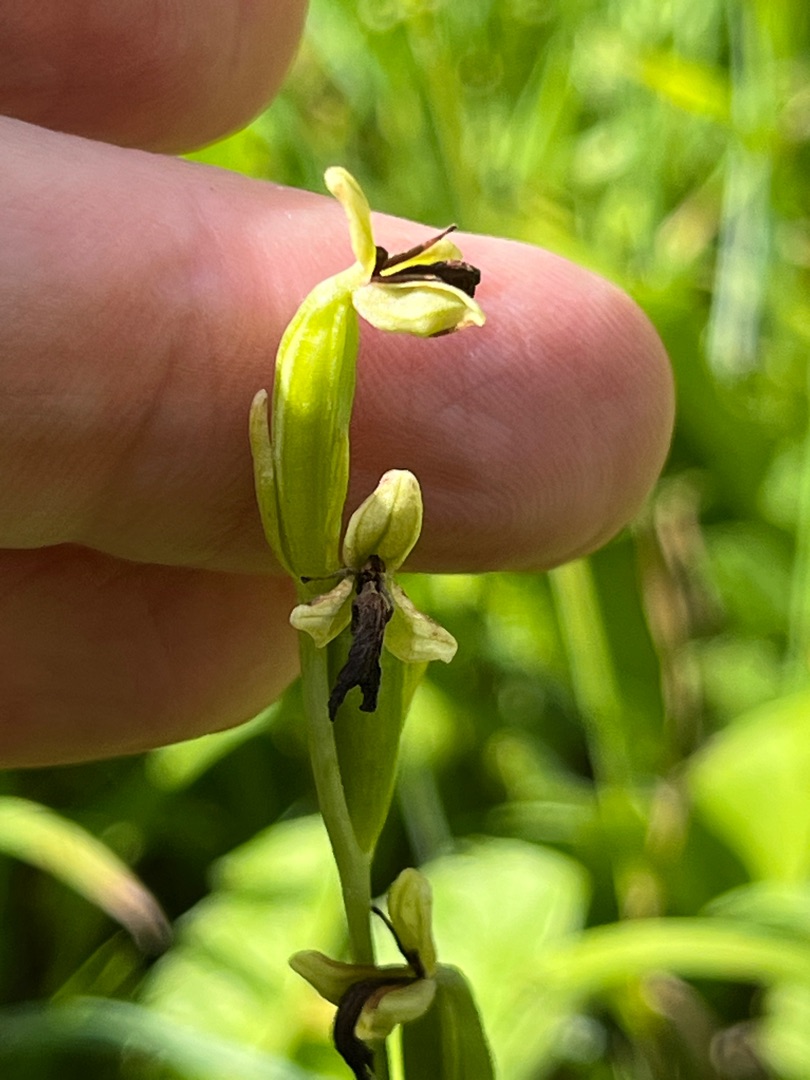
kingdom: Plantae
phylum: Tracheophyta
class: Liliopsida
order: Asparagales
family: Orchidaceae
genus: Ophrys
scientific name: Ophrys insectifera
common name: Flueblomst
